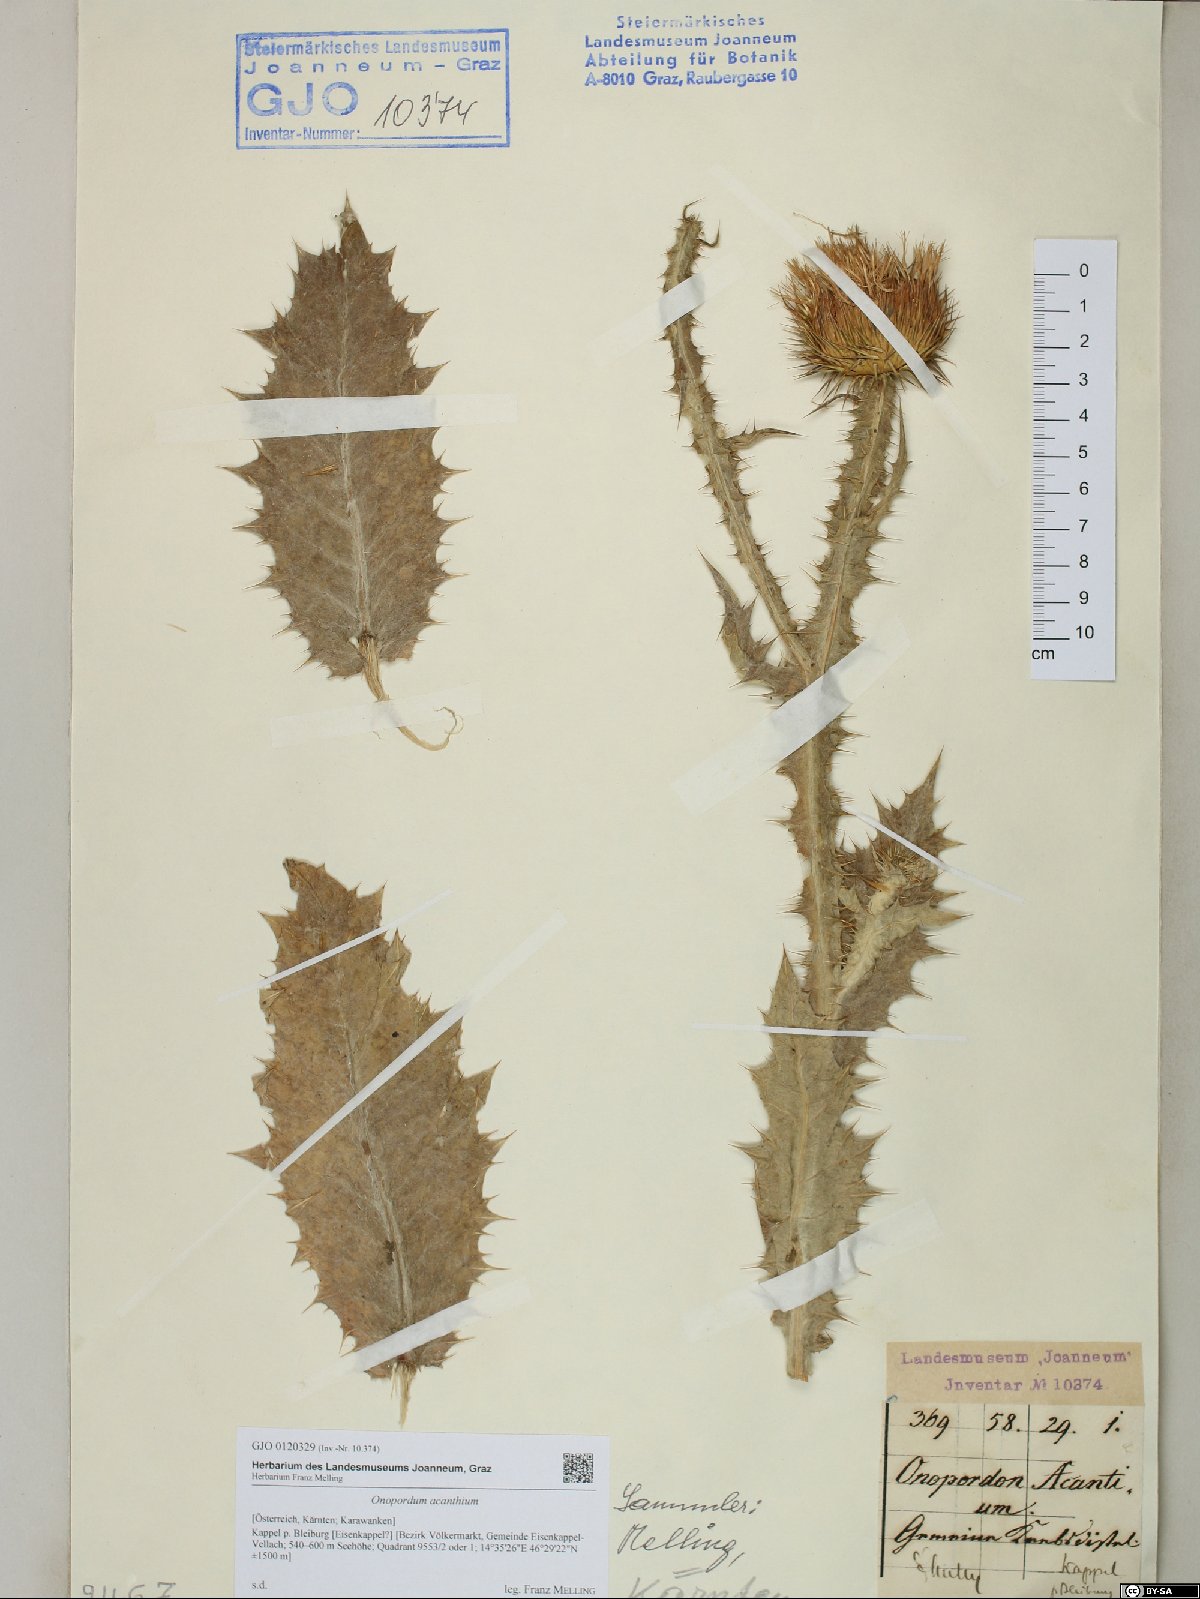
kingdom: Plantae
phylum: Tracheophyta
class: Magnoliopsida
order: Asterales
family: Asteraceae
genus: Onopordum
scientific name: Onopordum acanthium
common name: Scotch thistle
